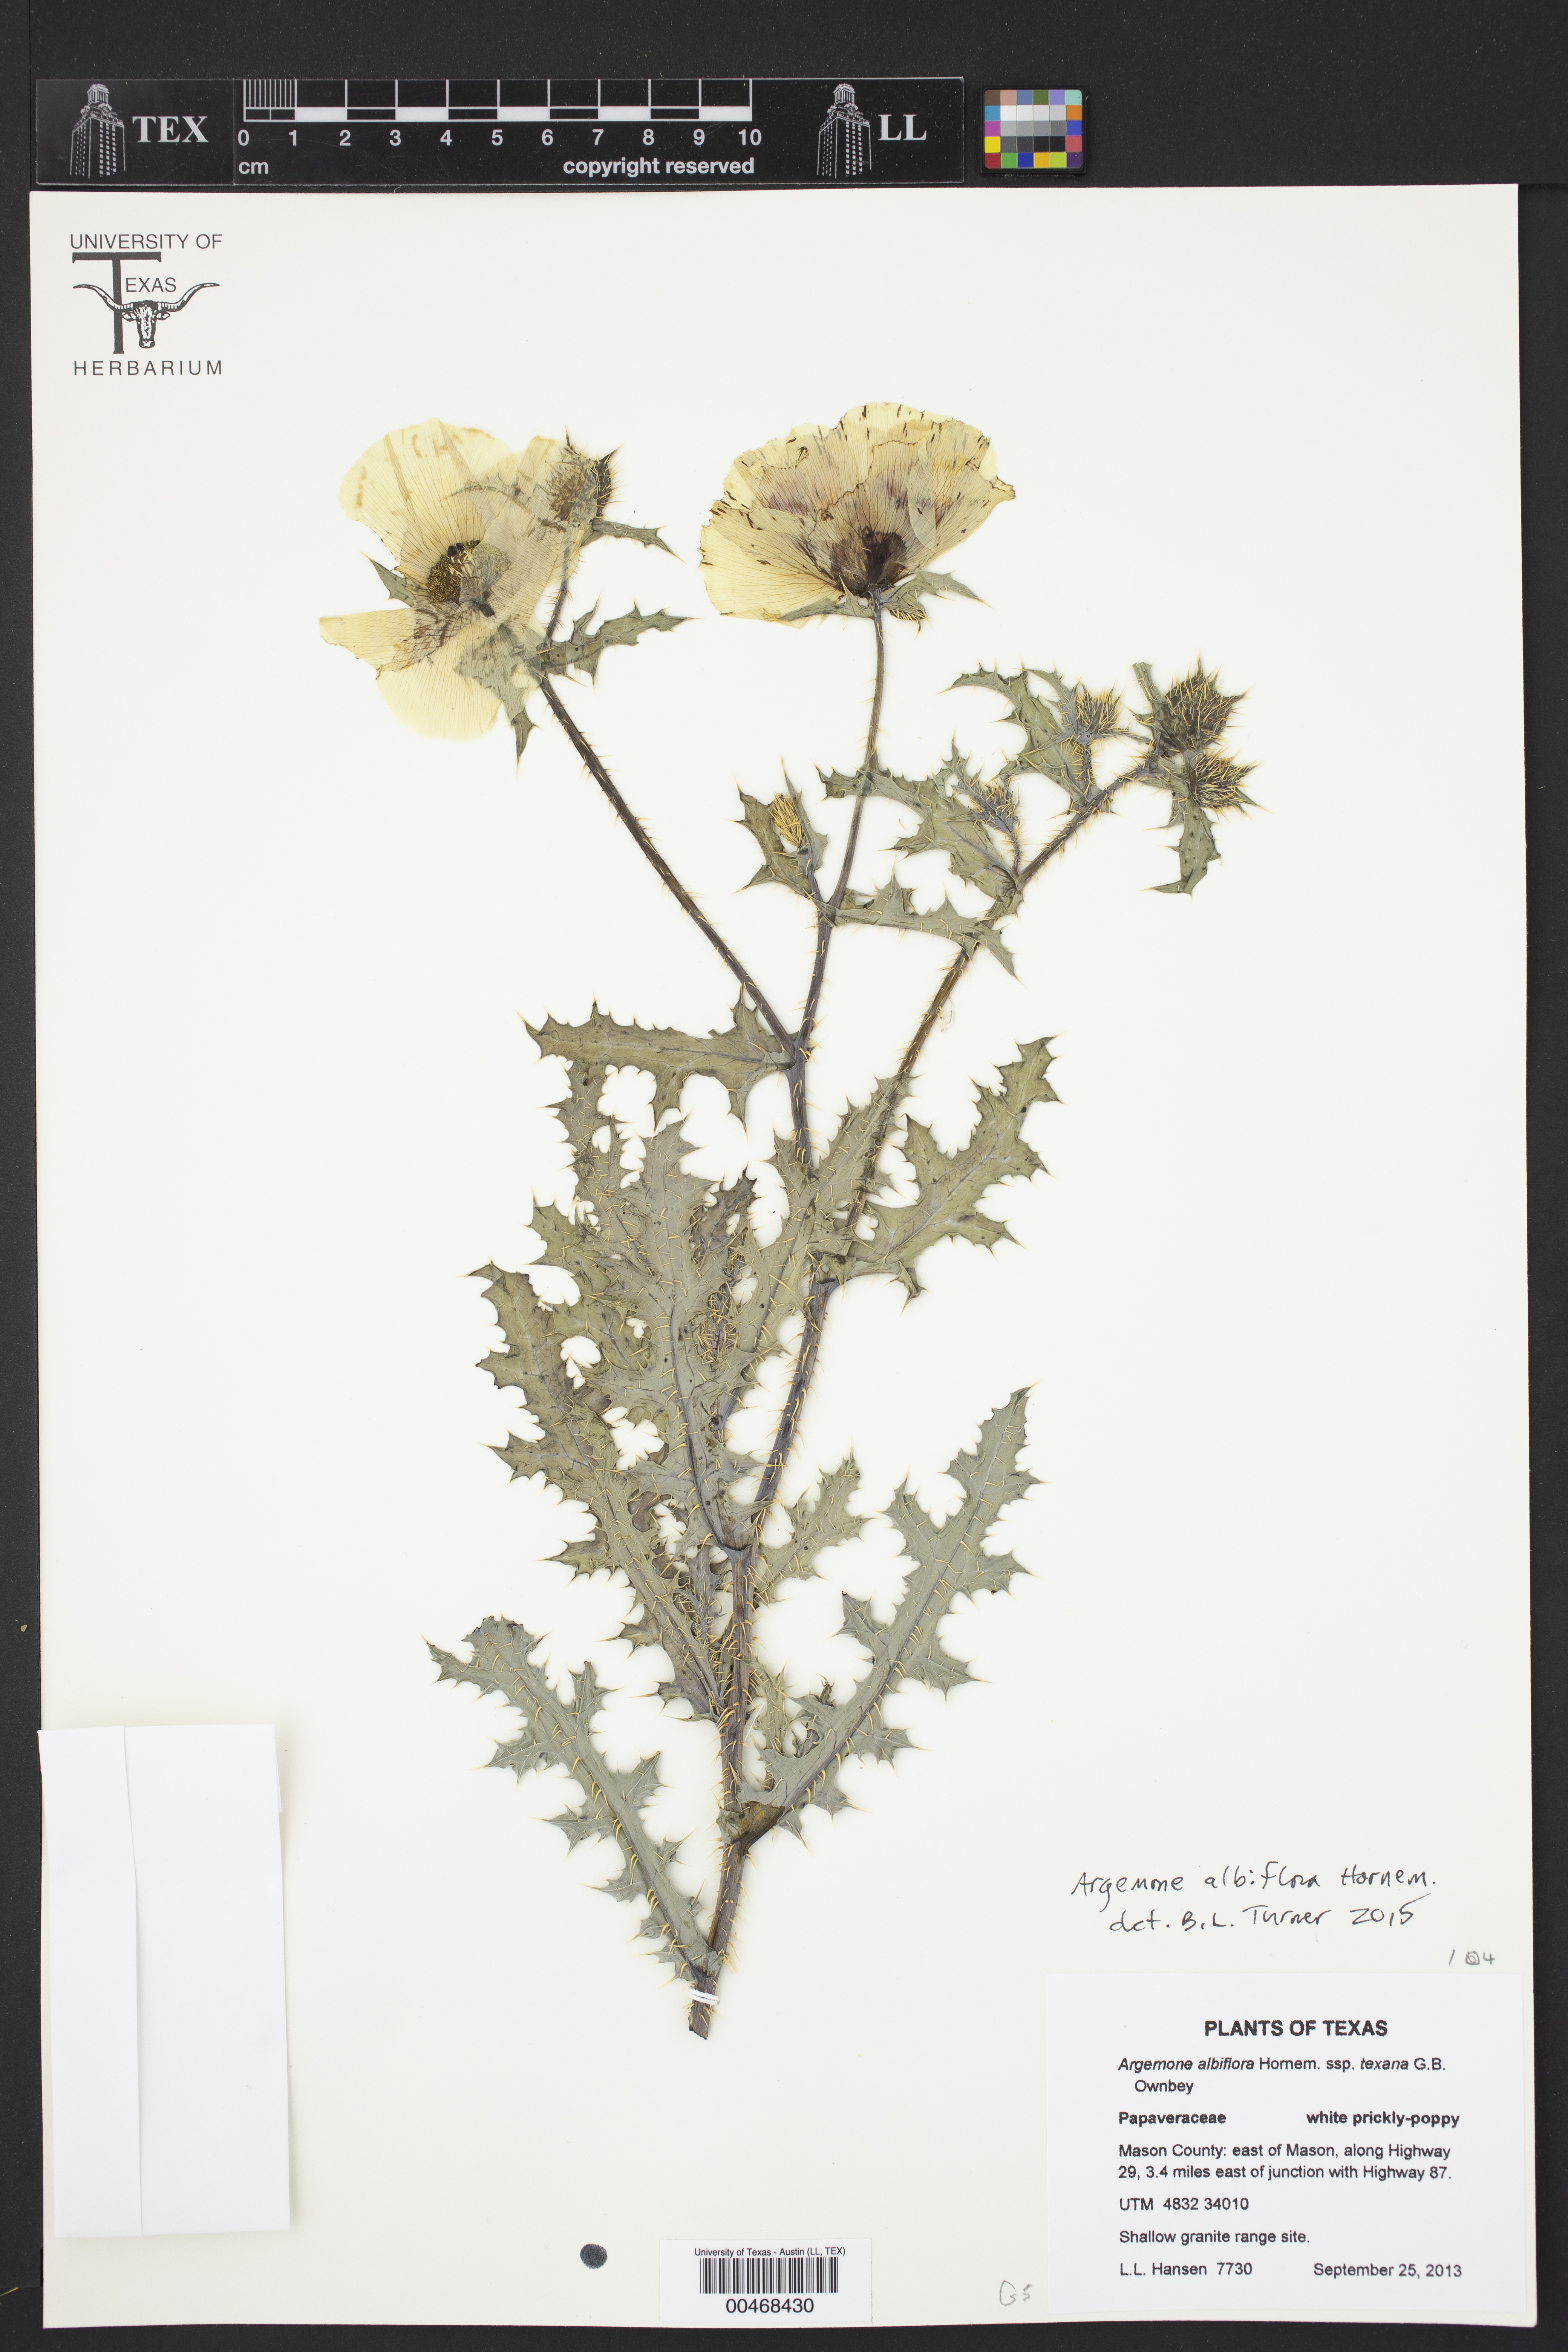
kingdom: Plantae
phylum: Tracheophyta
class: Magnoliopsida
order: Ranunculales
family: Papaveraceae
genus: Argemone
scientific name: Argemone albiflora
